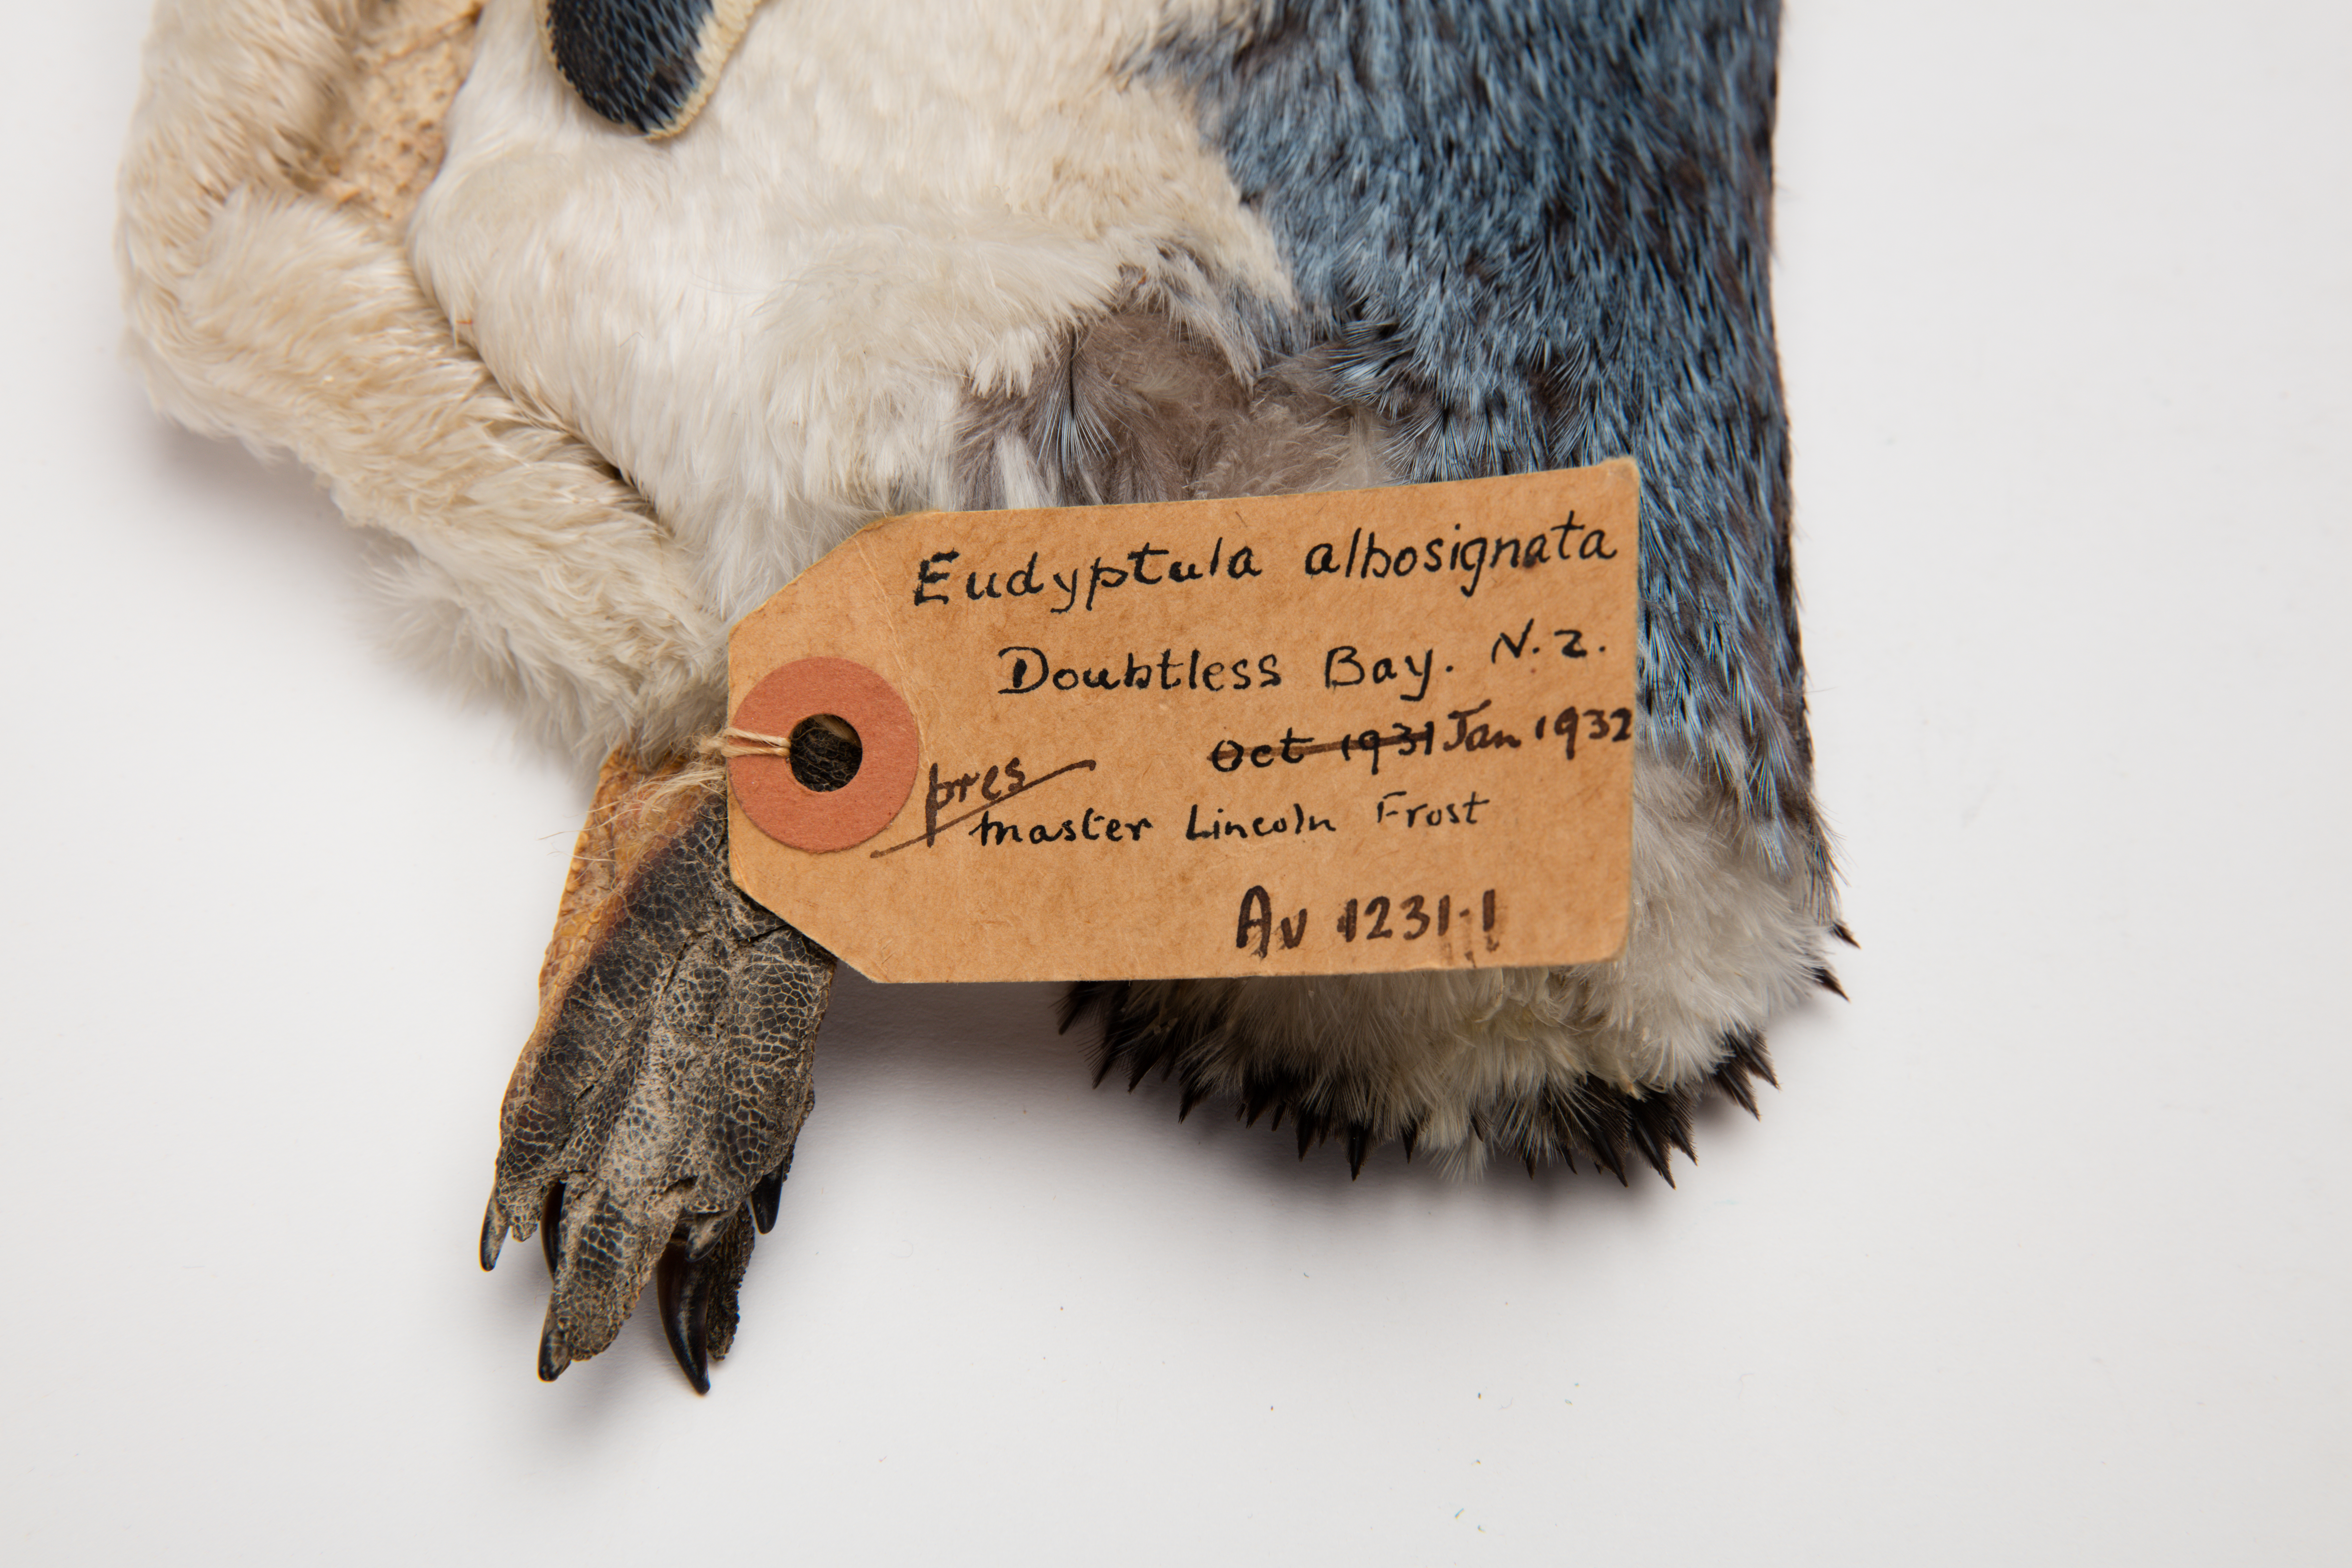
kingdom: Animalia
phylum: Chordata
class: Aves
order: Sphenisciformes
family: Spheniscidae
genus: Eudyptula
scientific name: Eudyptula minor
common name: Little penguin
